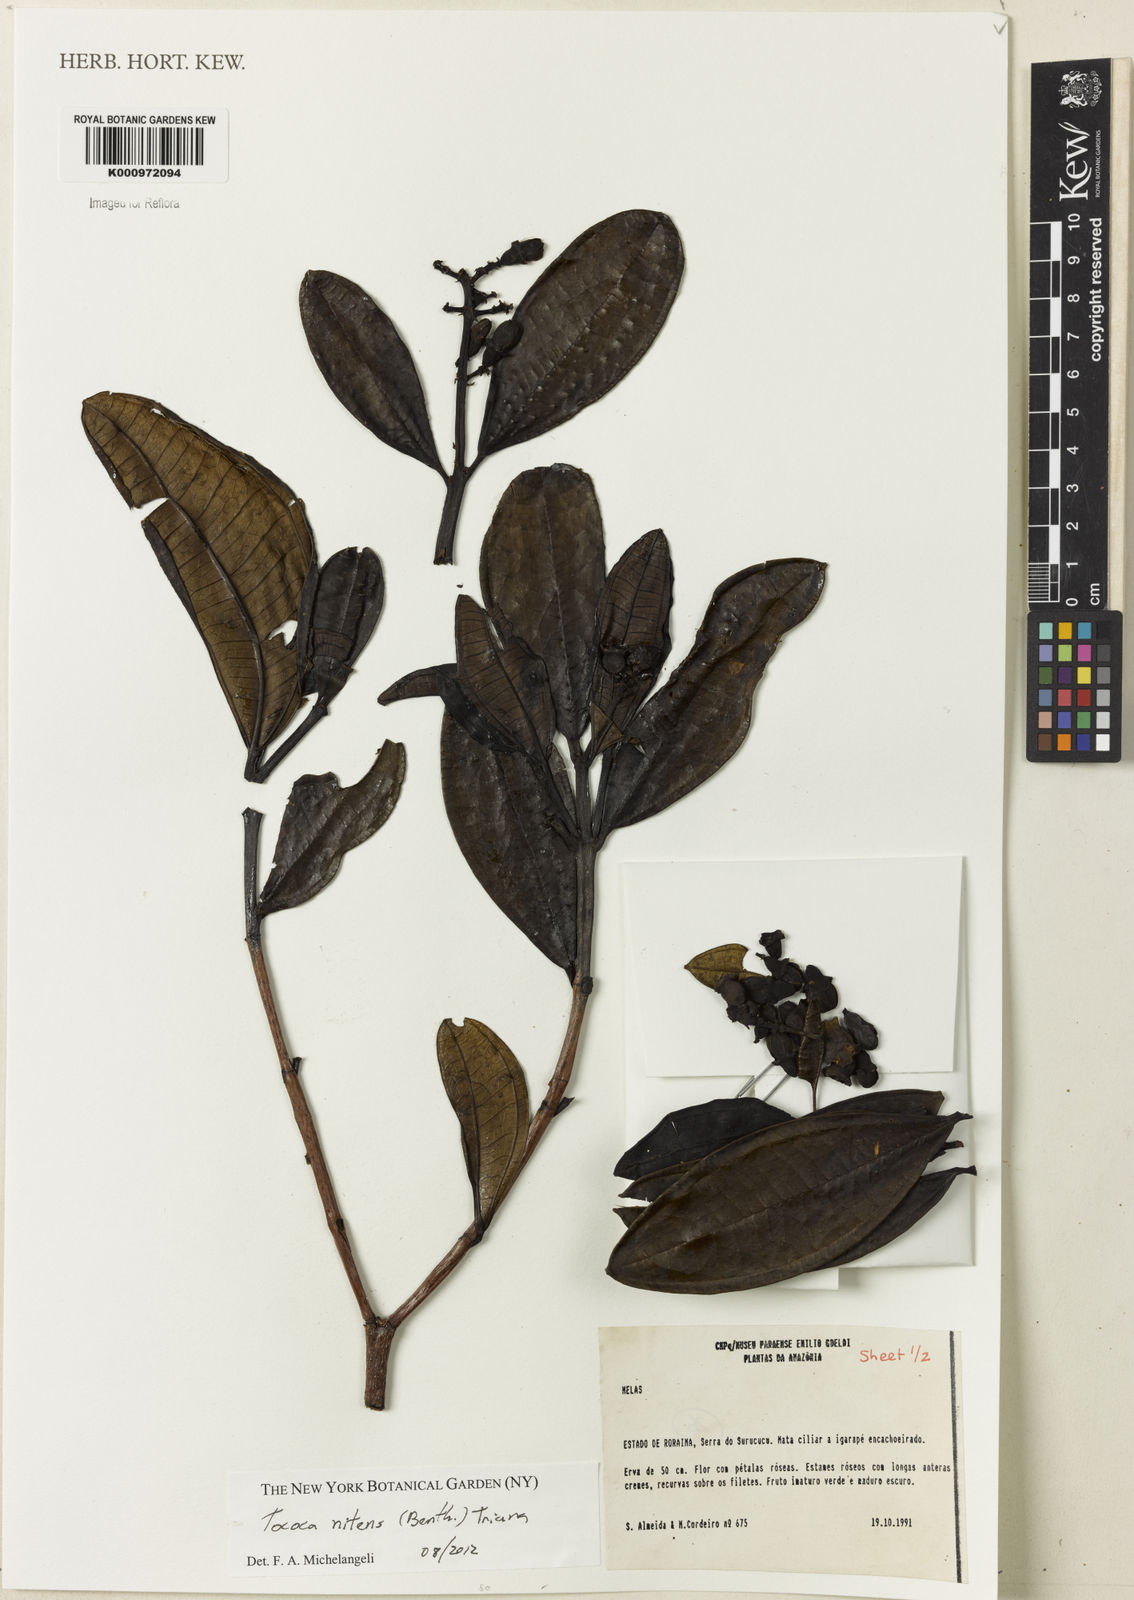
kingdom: Plantae
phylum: Tracheophyta
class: Magnoliopsida
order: Myrtales
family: Melastomataceae
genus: Miconia
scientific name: Miconia nitens
